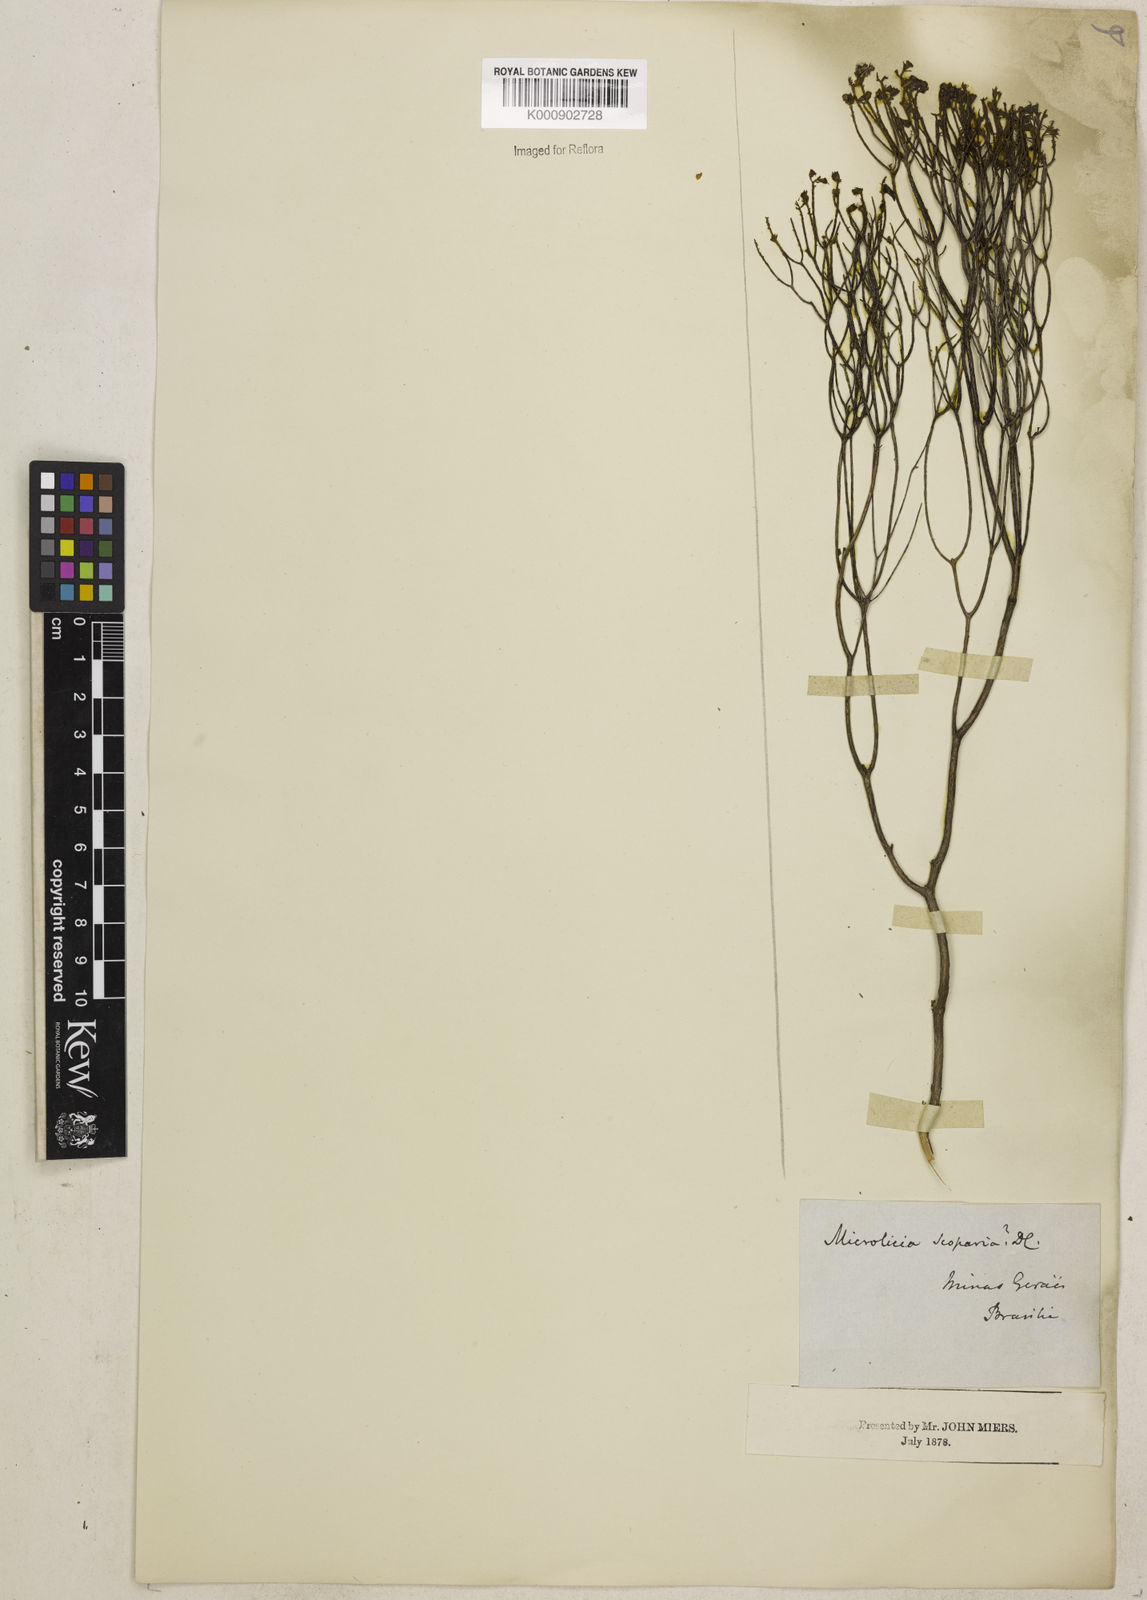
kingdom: Plantae
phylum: Tracheophyta
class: Magnoliopsida
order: Myrtales
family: Melastomataceae
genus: Microlicia
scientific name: Microlicia scoparia
